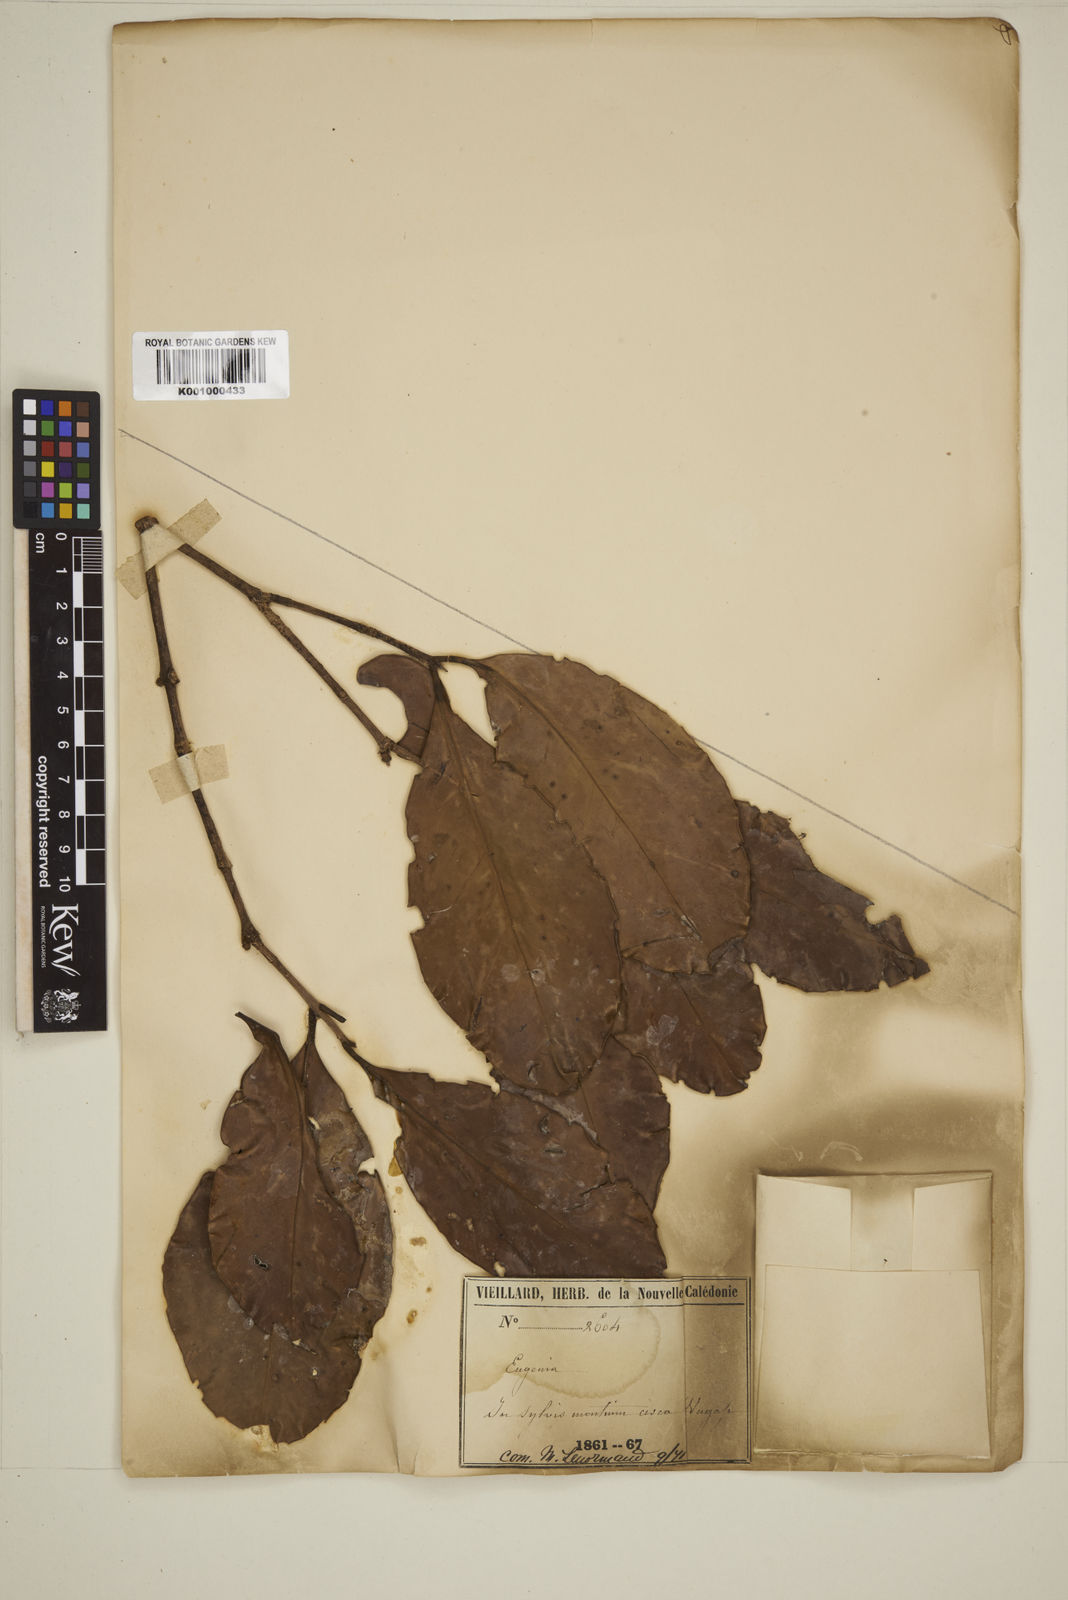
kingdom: Plantae
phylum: Tracheophyta
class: Magnoliopsida
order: Myrtales
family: Myrtaceae
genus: Eugenia
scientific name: Eugenia
